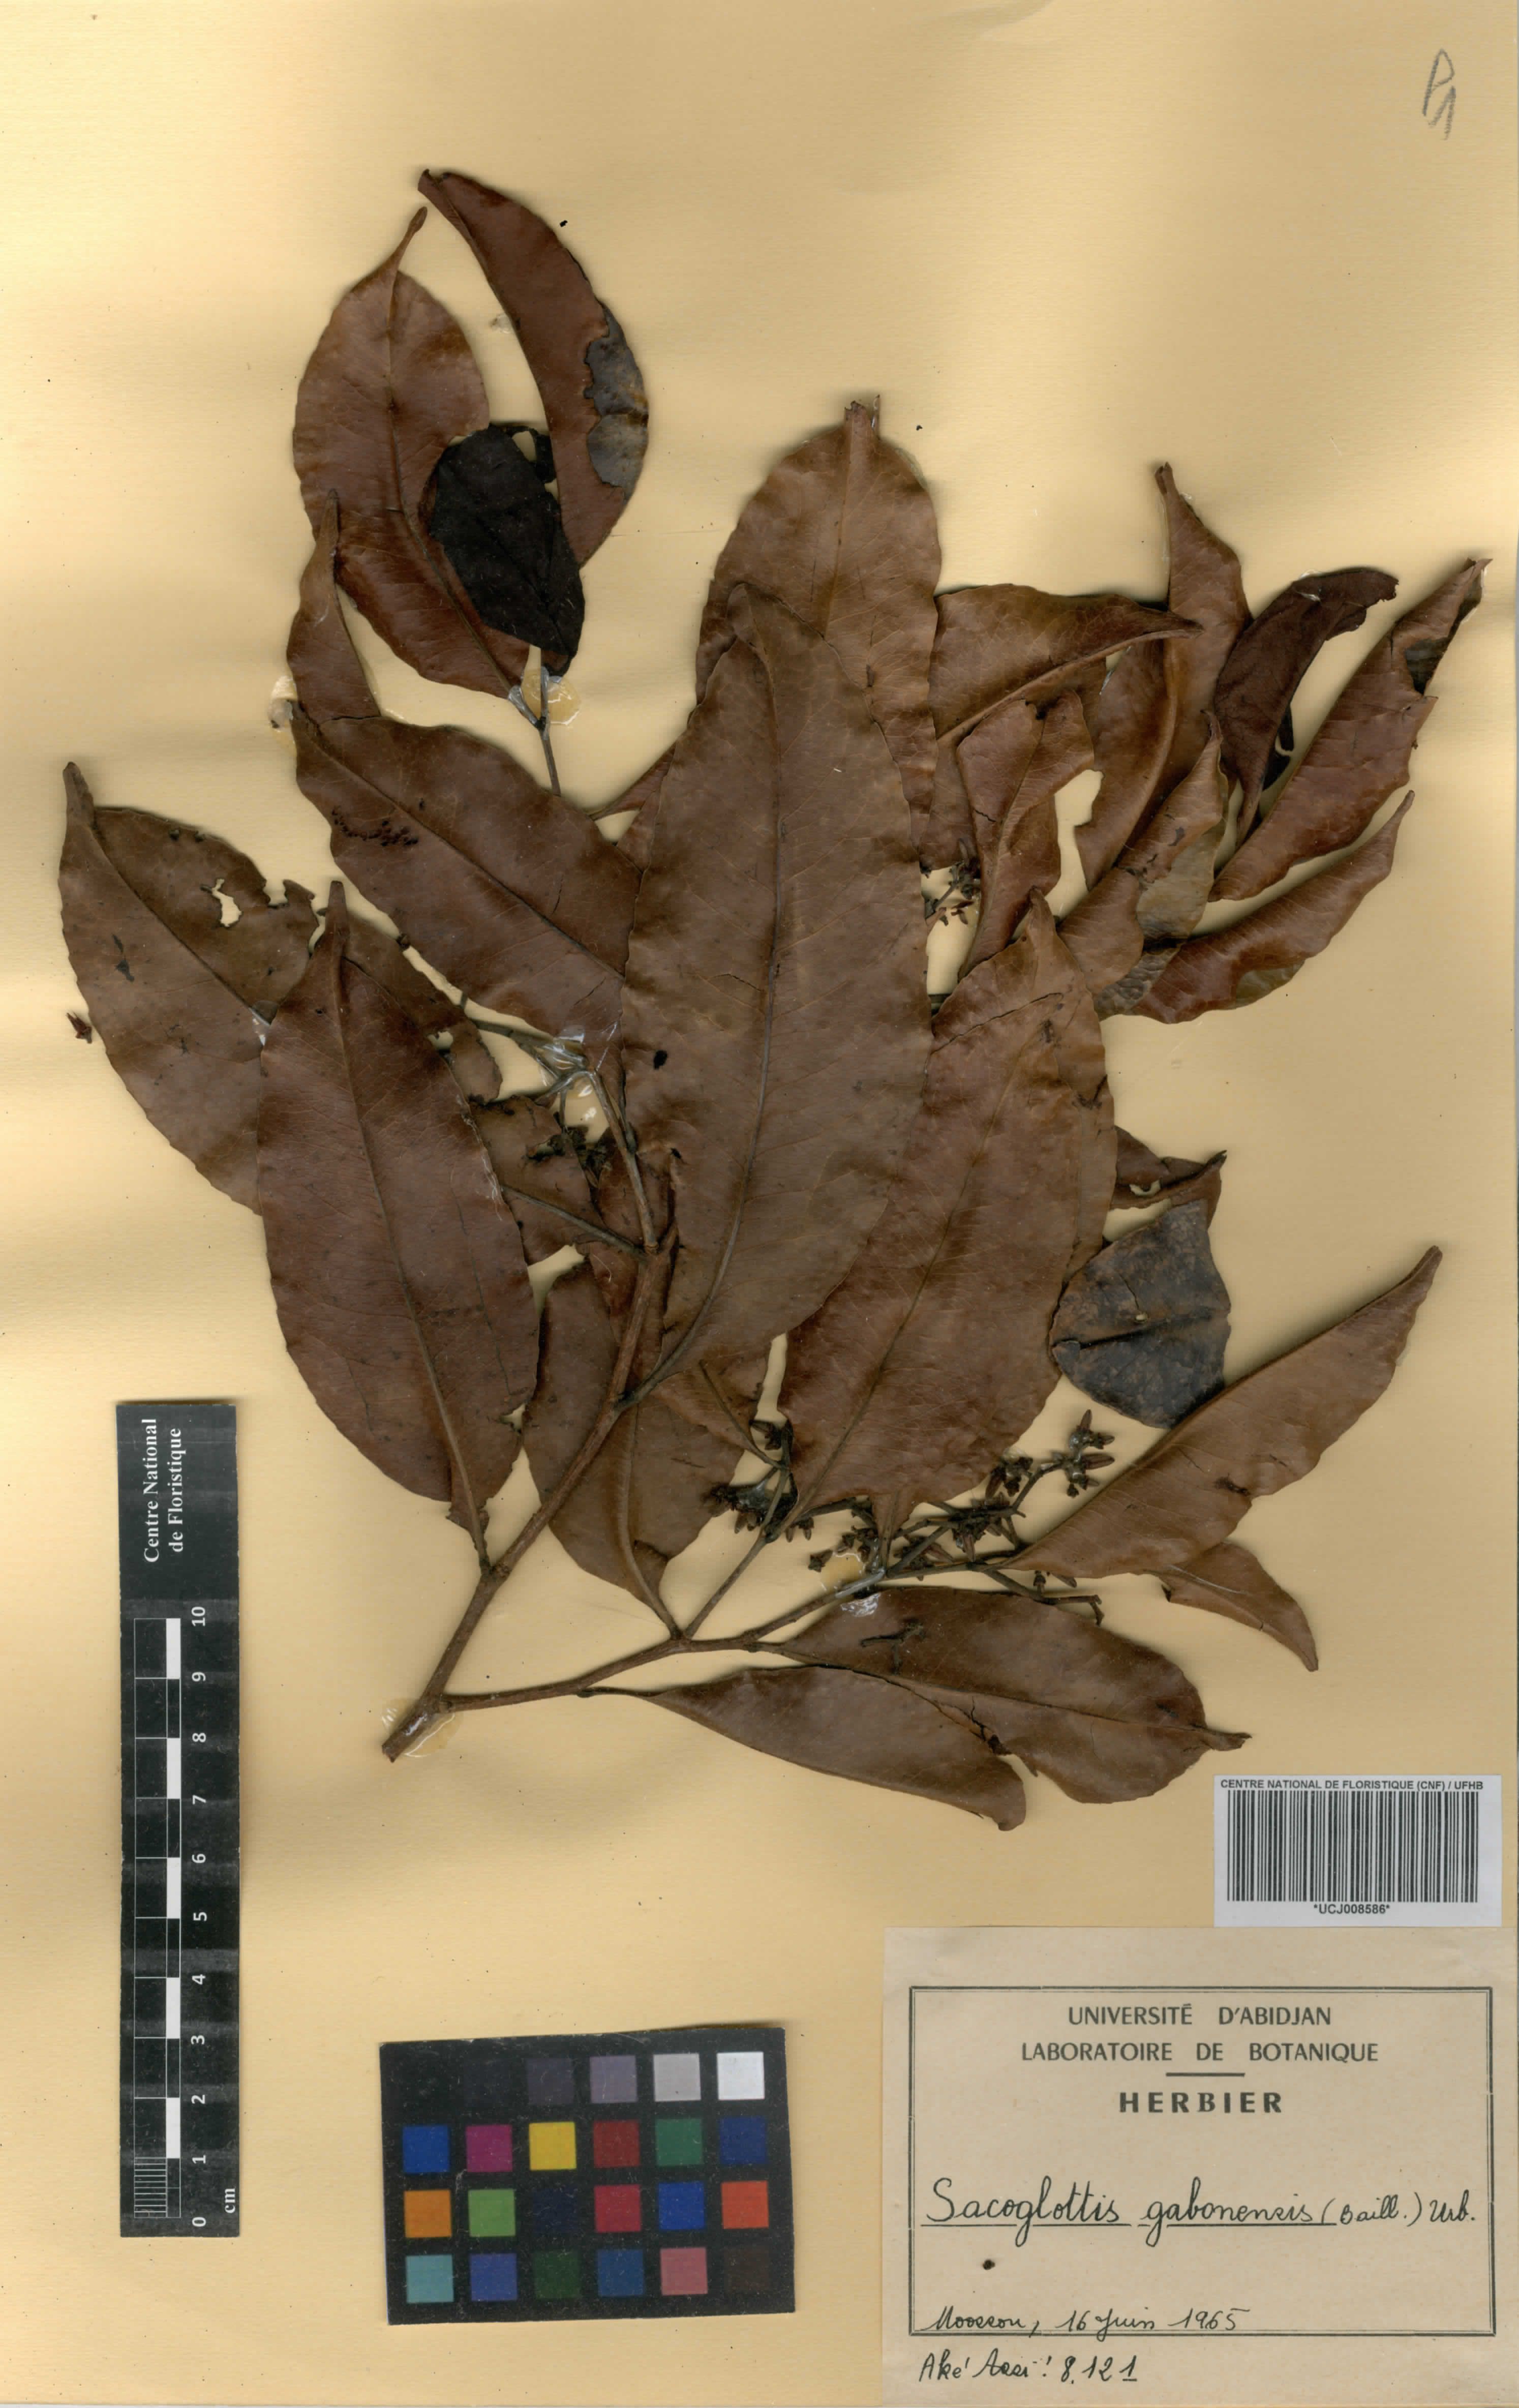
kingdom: Plantae
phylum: Tracheophyta
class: Magnoliopsida
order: Malpighiales
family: Humiriaceae
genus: Sacoglottis
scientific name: Sacoglottis gabonensis
